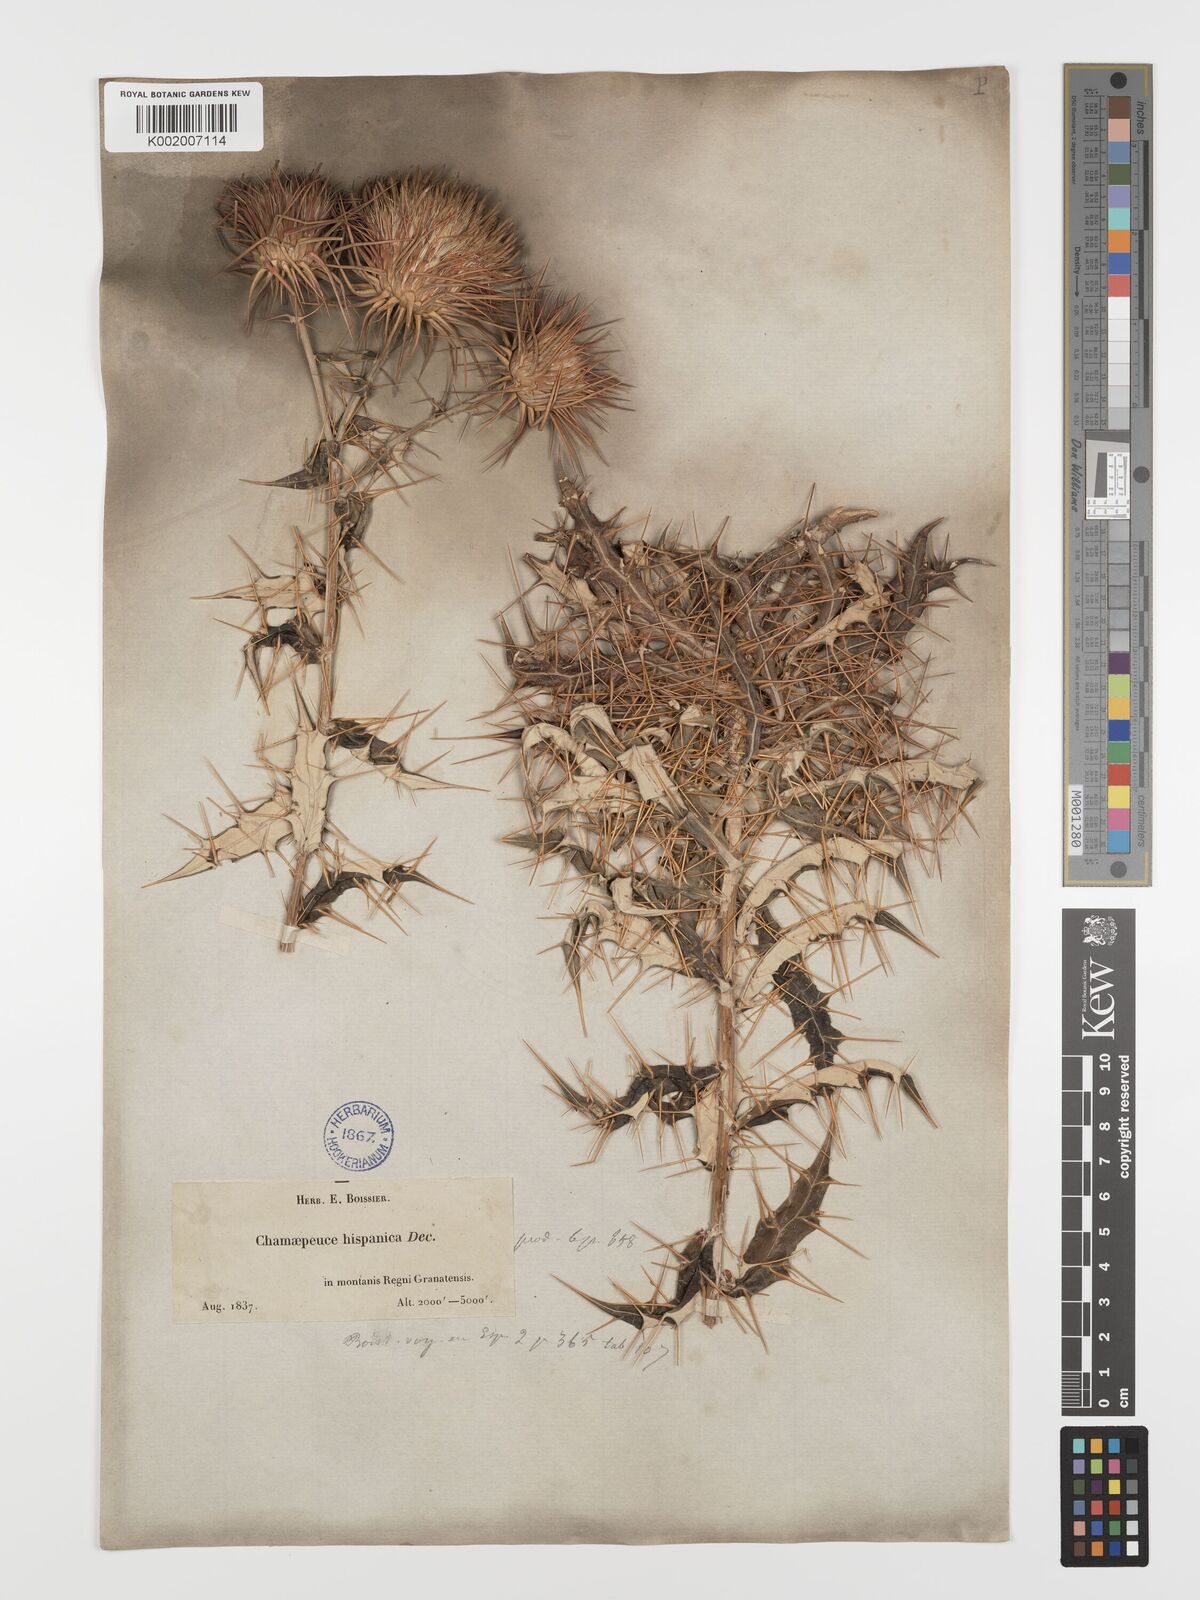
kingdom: Plantae
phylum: Tracheophyta
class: Magnoliopsida
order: Asterales
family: Asteraceae
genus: Ptilostemon
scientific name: Ptilostemon hispanicus
